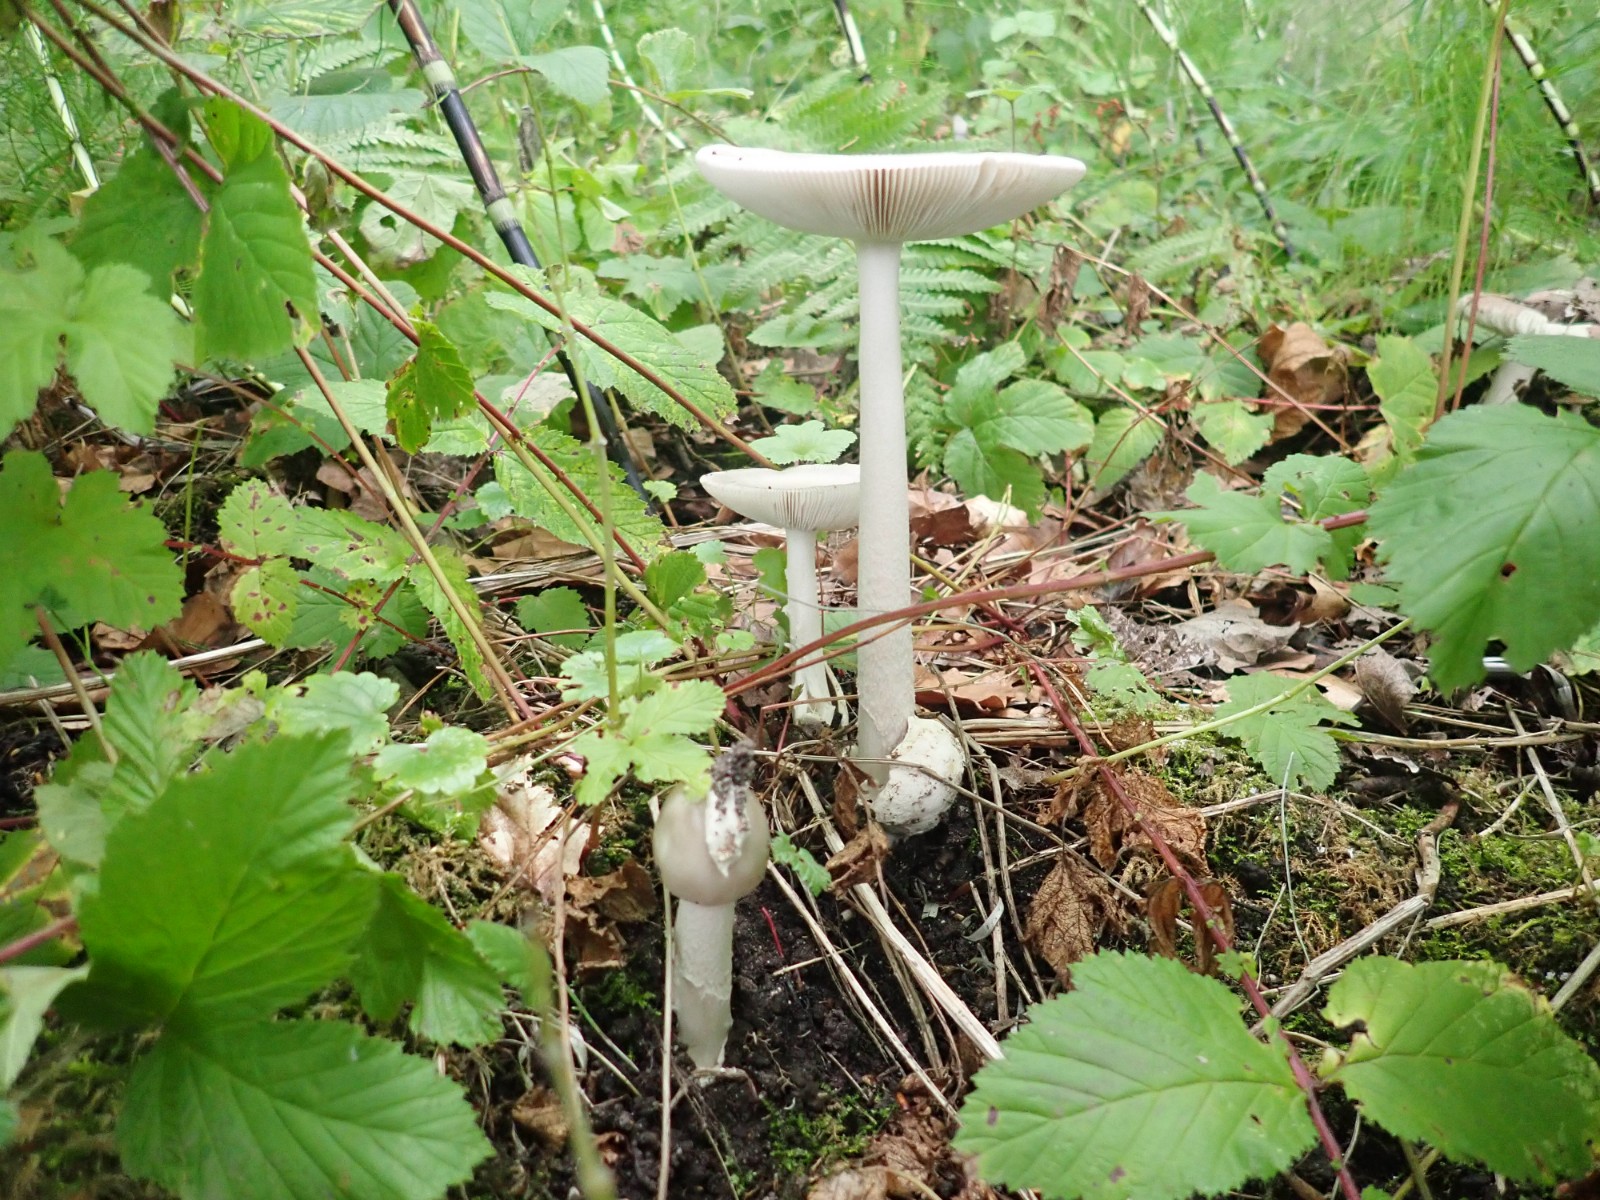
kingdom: Fungi
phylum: Basidiomycota
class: Agaricomycetes
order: Agaricales
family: Amanitaceae
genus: Amanita
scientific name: Amanita vaginata
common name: grå kam-fluesvamp
